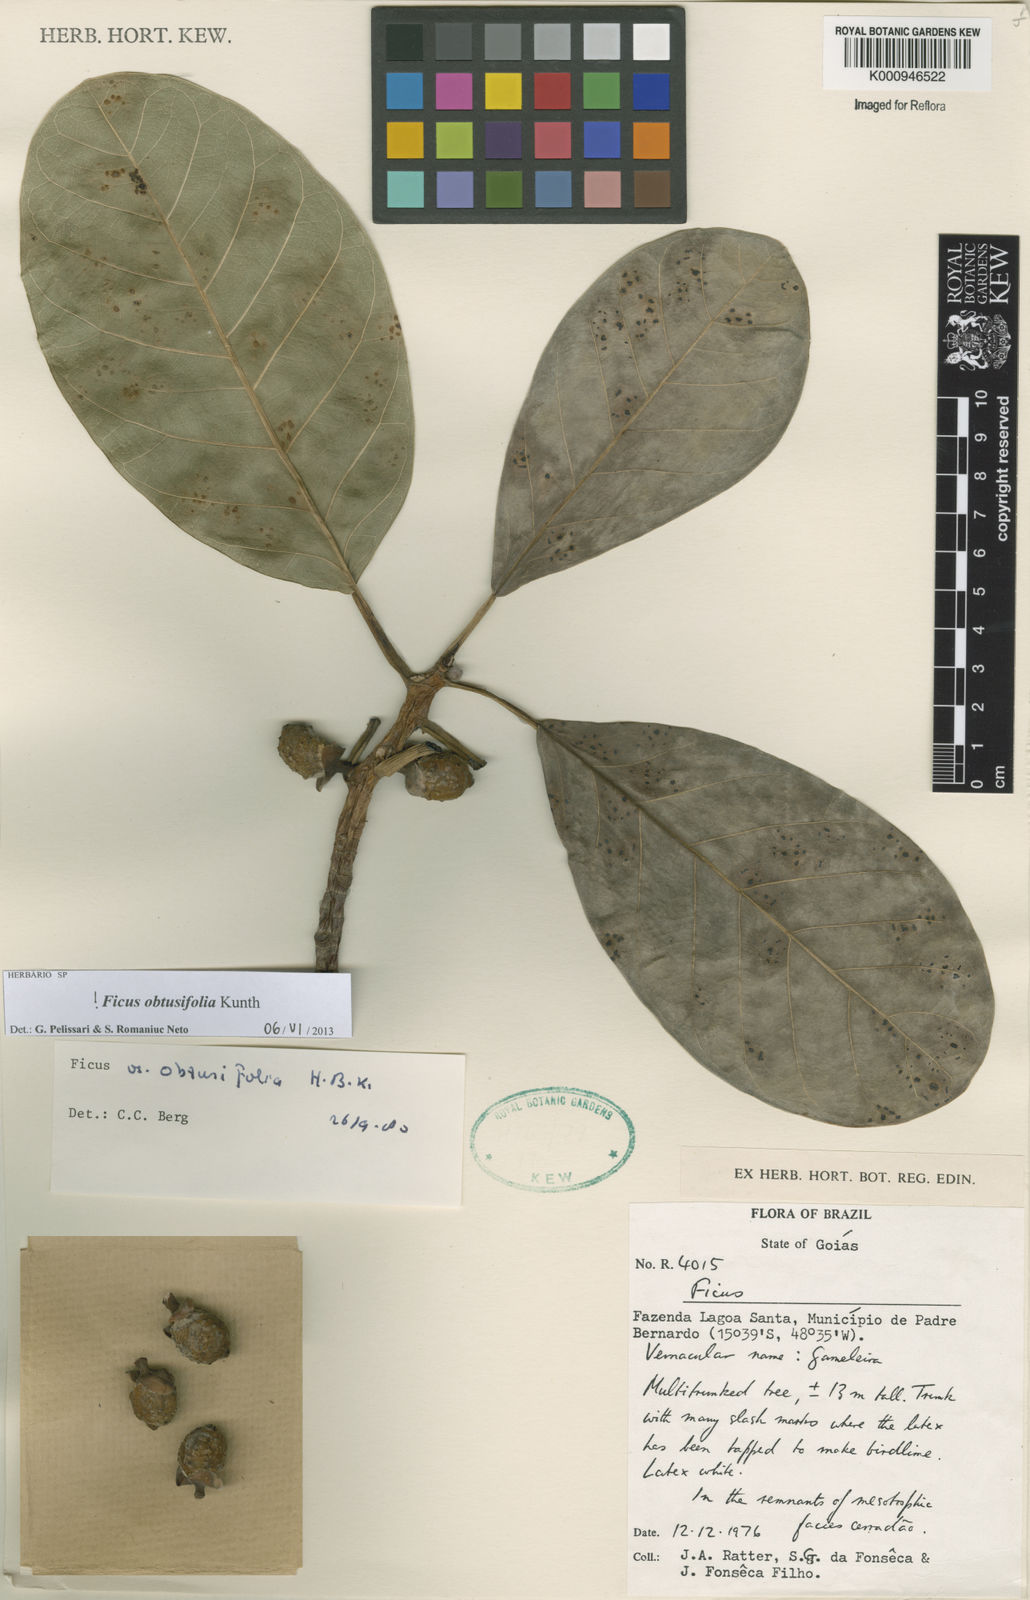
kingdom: Plantae
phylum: Tracheophyta
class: Magnoliopsida
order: Rosales
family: Moraceae
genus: Ficus
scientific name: Ficus obtusifolia
